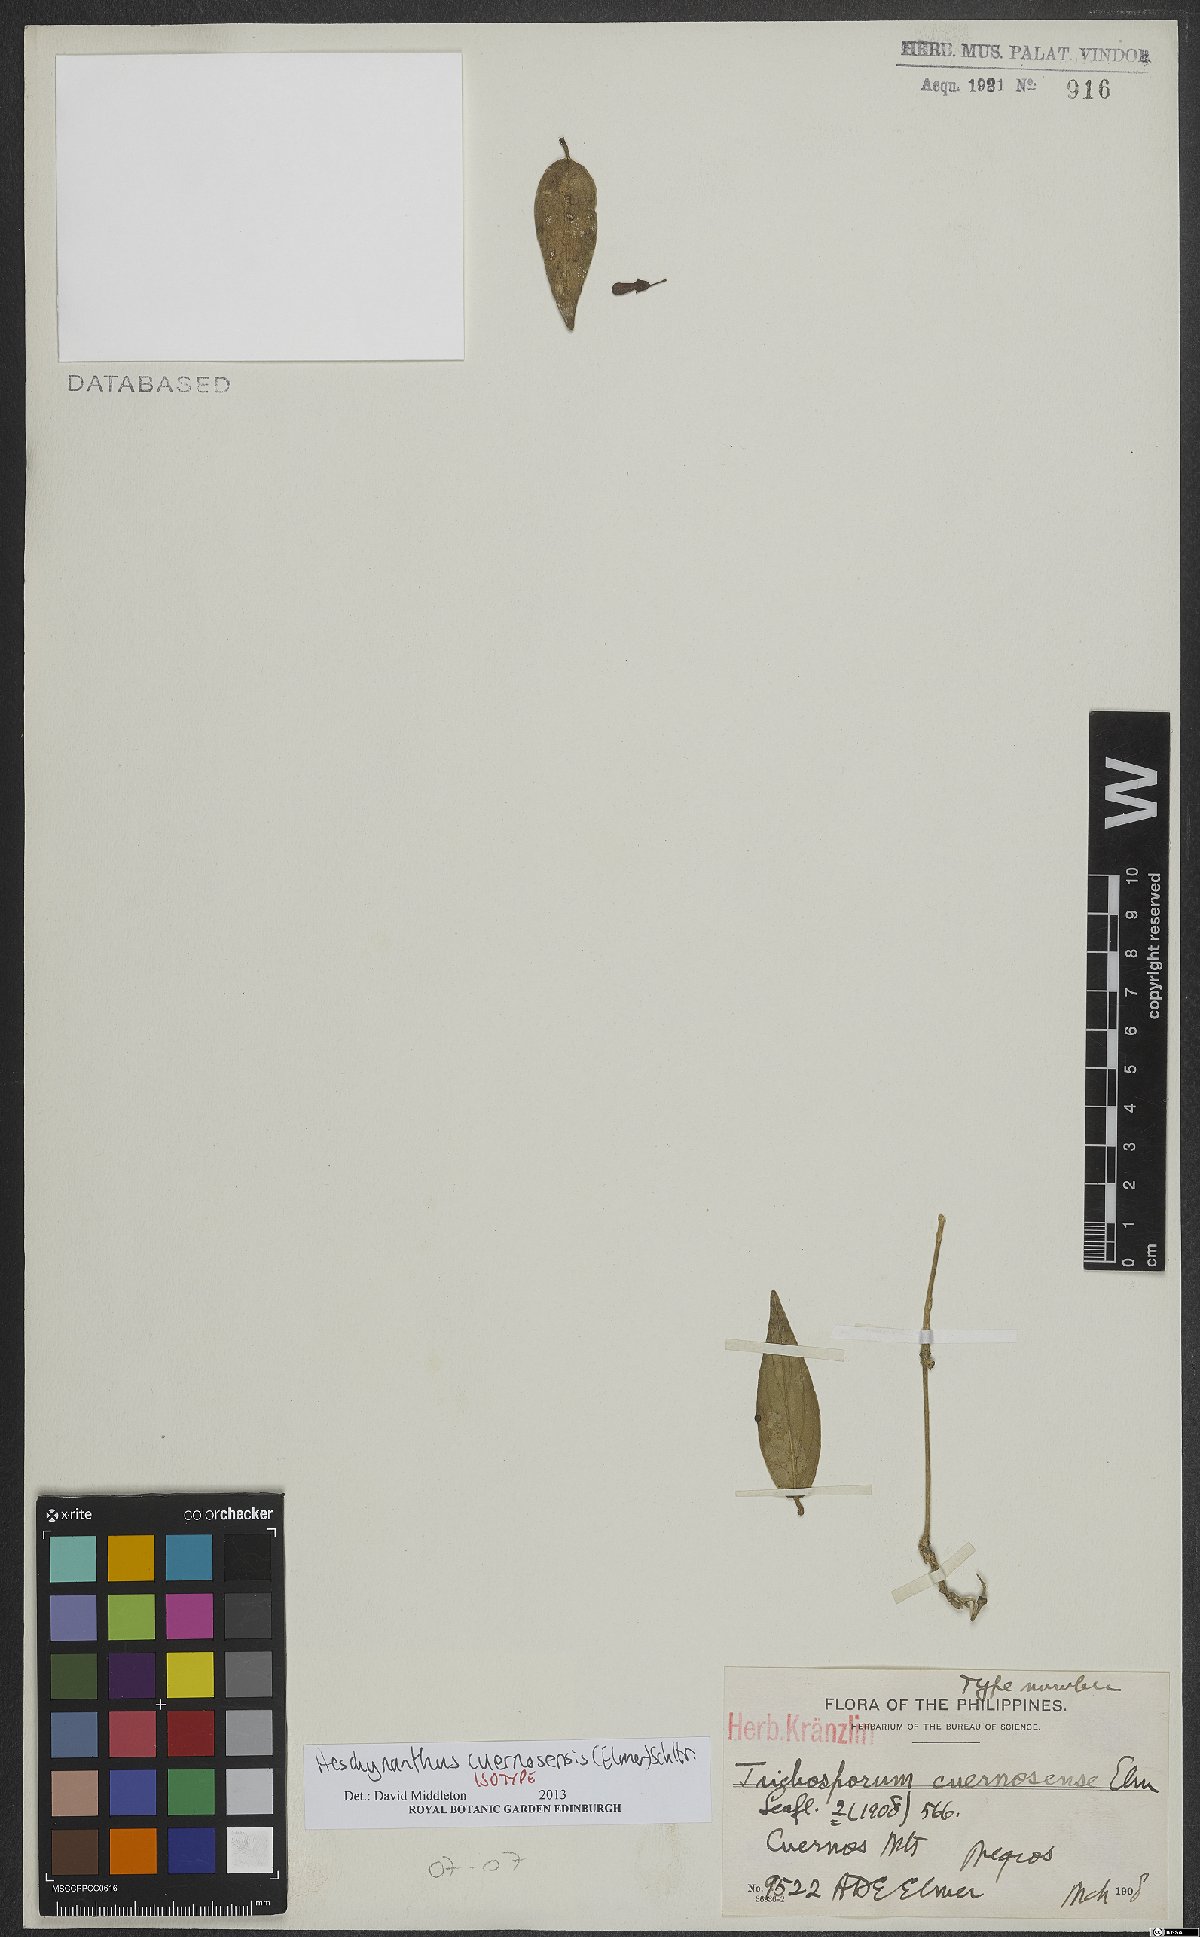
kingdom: Plantae
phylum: Tracheophyta
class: Magnoliopsida
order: Lamiales
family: Gesneriaceae
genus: Aeschynanthus
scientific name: Aeschynanthus cuernosensis
